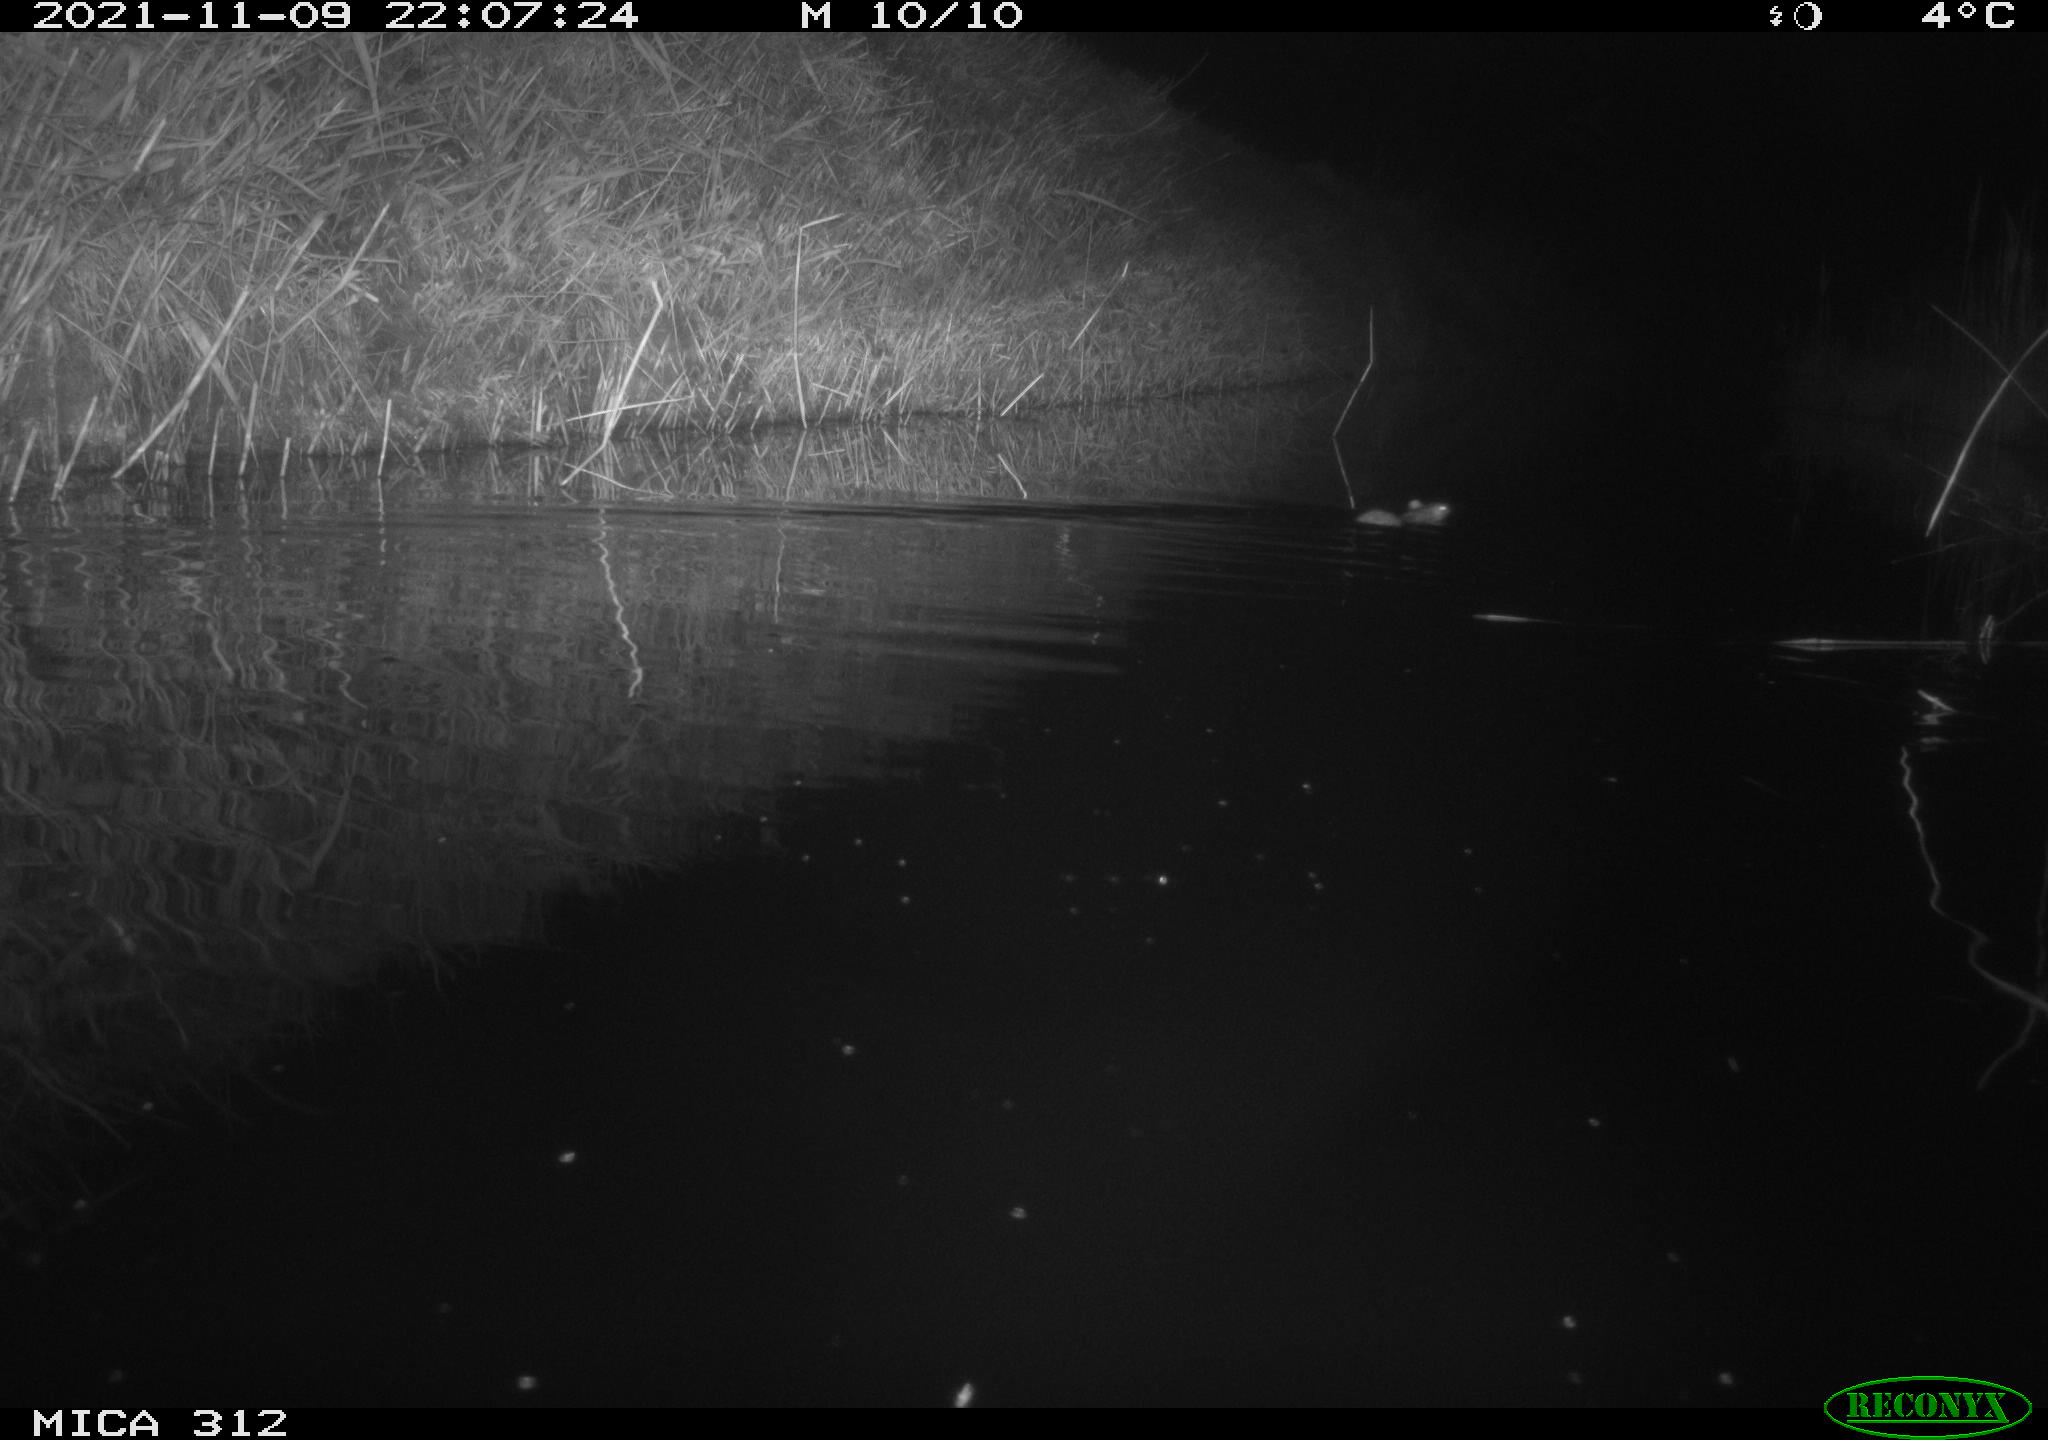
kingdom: Animalia
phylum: Chordata
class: Mammalia
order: Rodentia
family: Muridae
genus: Rattus
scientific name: Rattus norvegicus
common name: Brown rat
